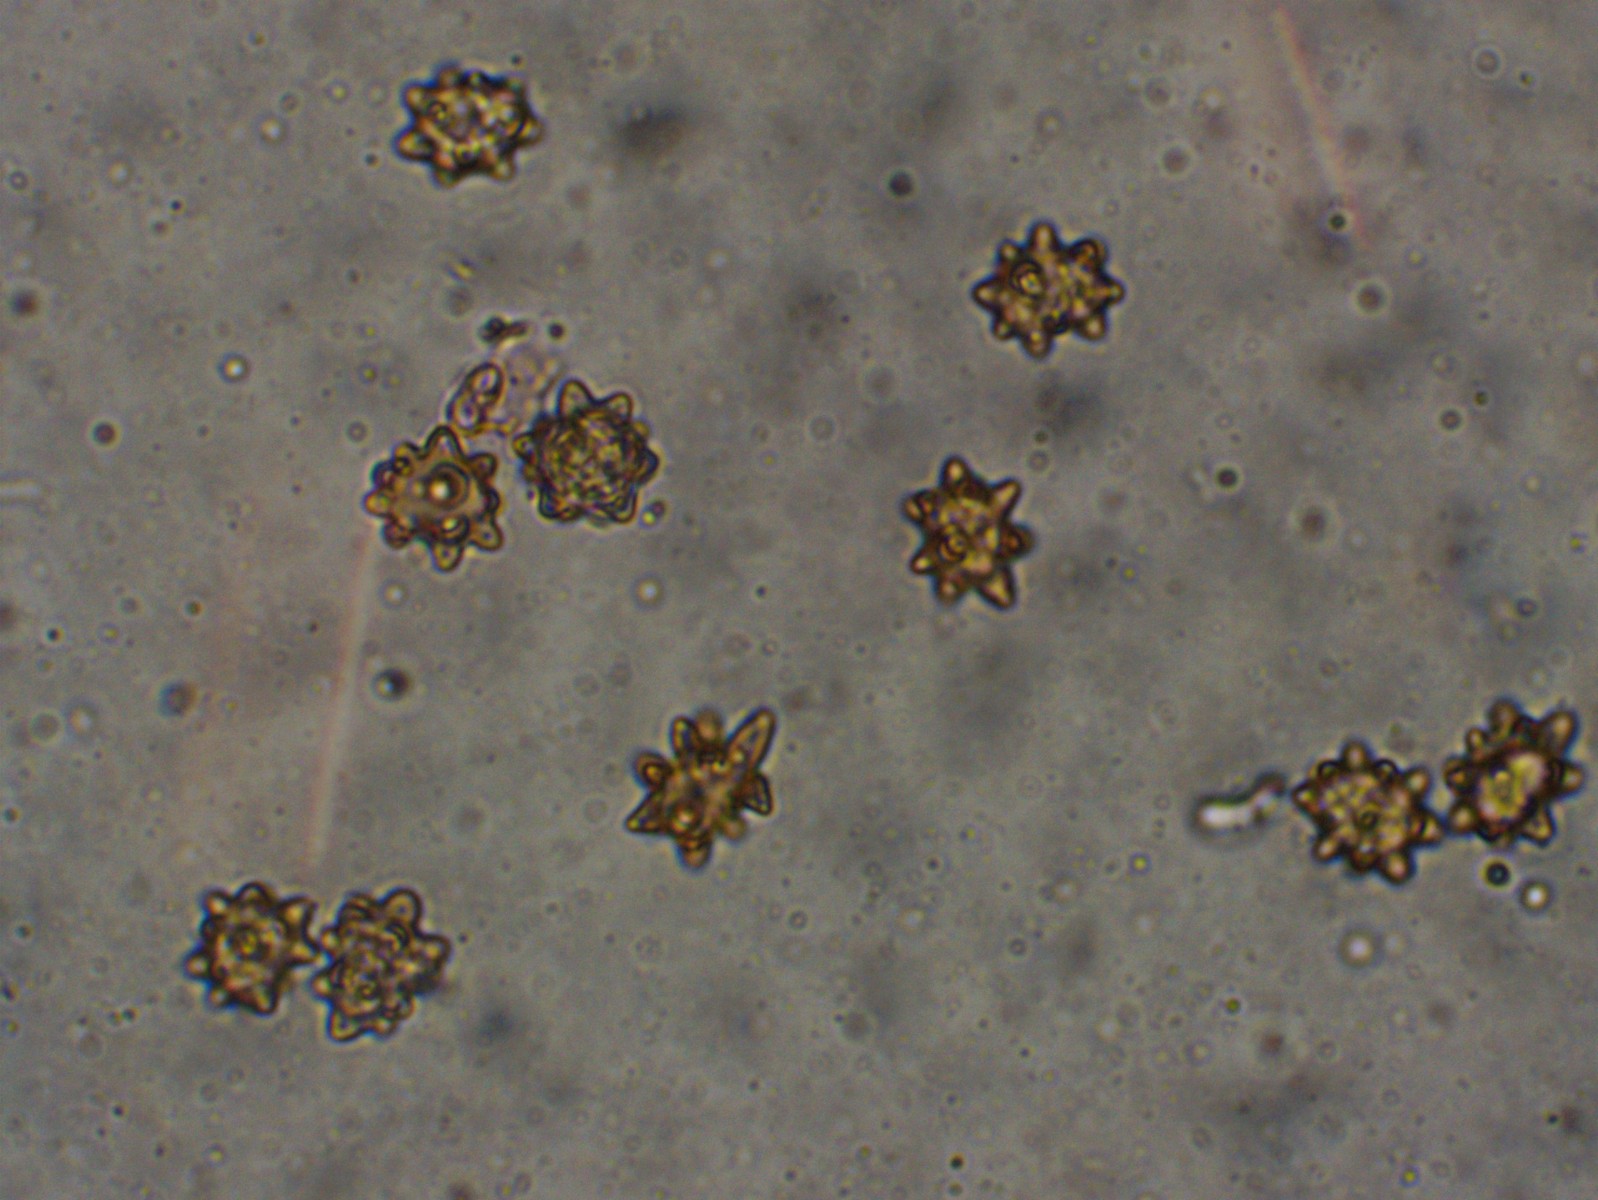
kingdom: Fungi
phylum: Basidiomycota
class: Agaricomycetes
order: Agaricales
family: Inocybaceae
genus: Inocybe
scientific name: Inocybe asterospora
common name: stjernesporet trævlhat
